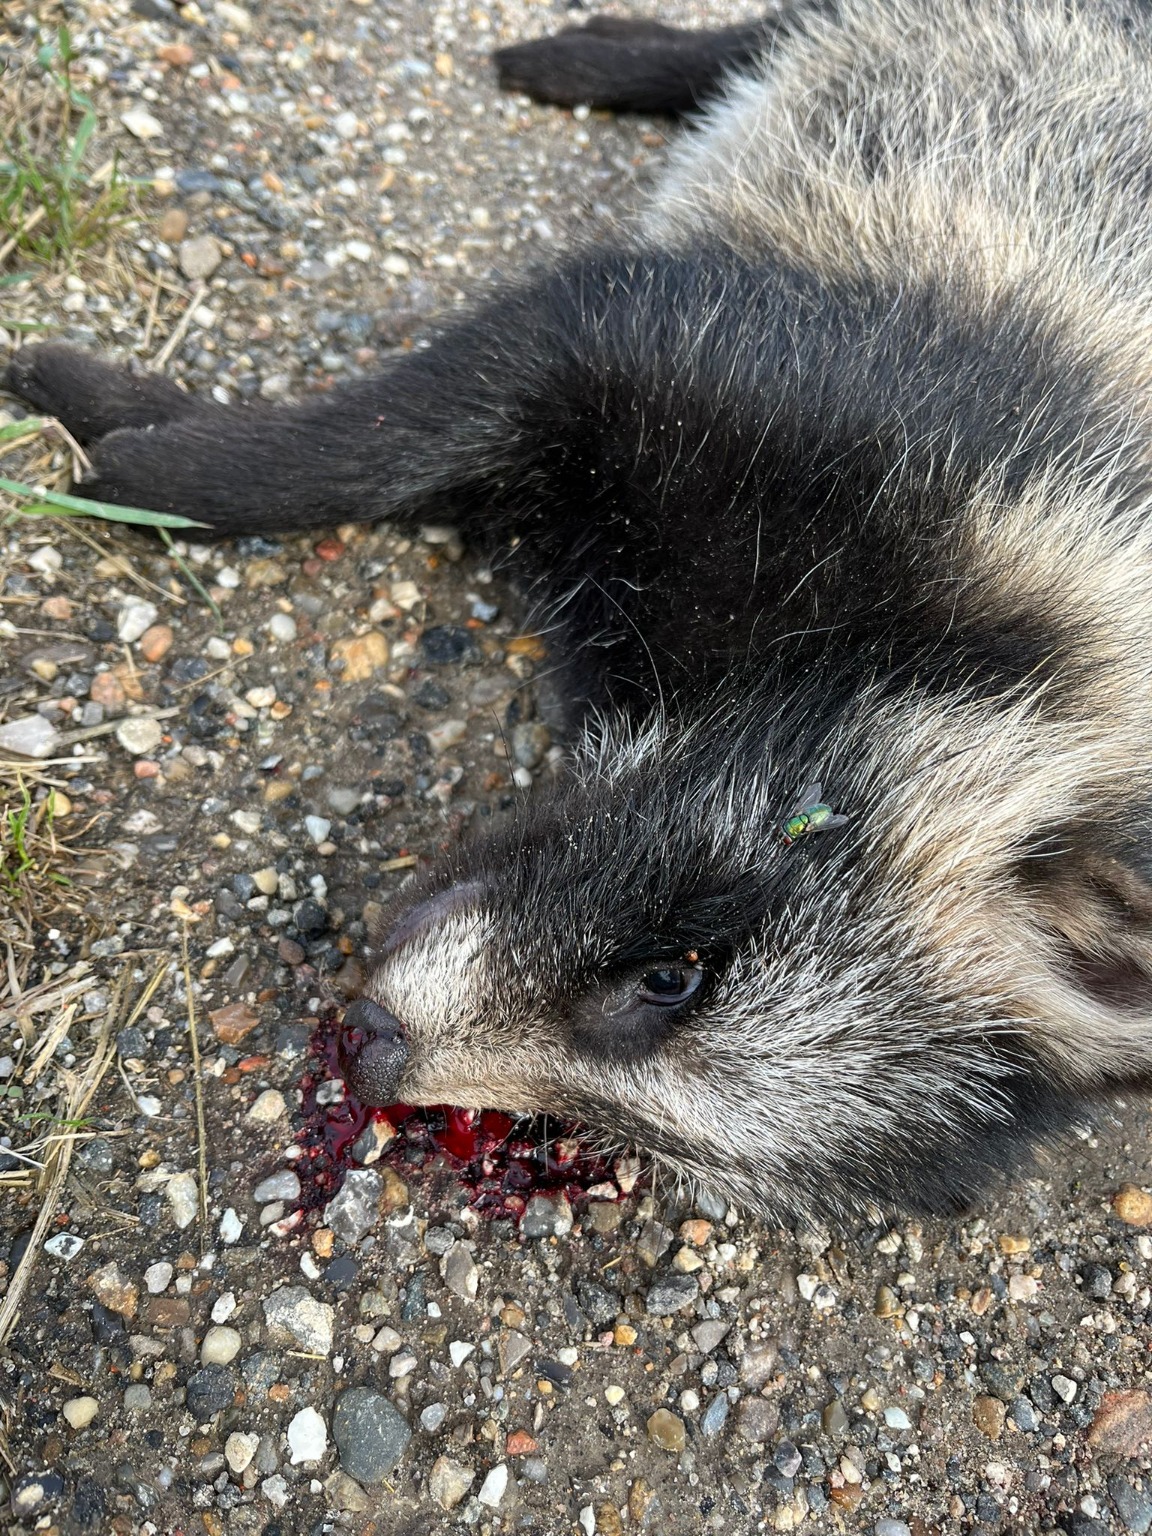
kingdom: Animalia
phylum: Chordata
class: Mammalia
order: Carnivora
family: Canidae
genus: Nyctereutes
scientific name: Nyctereutes procyonoides
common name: Mårhund
